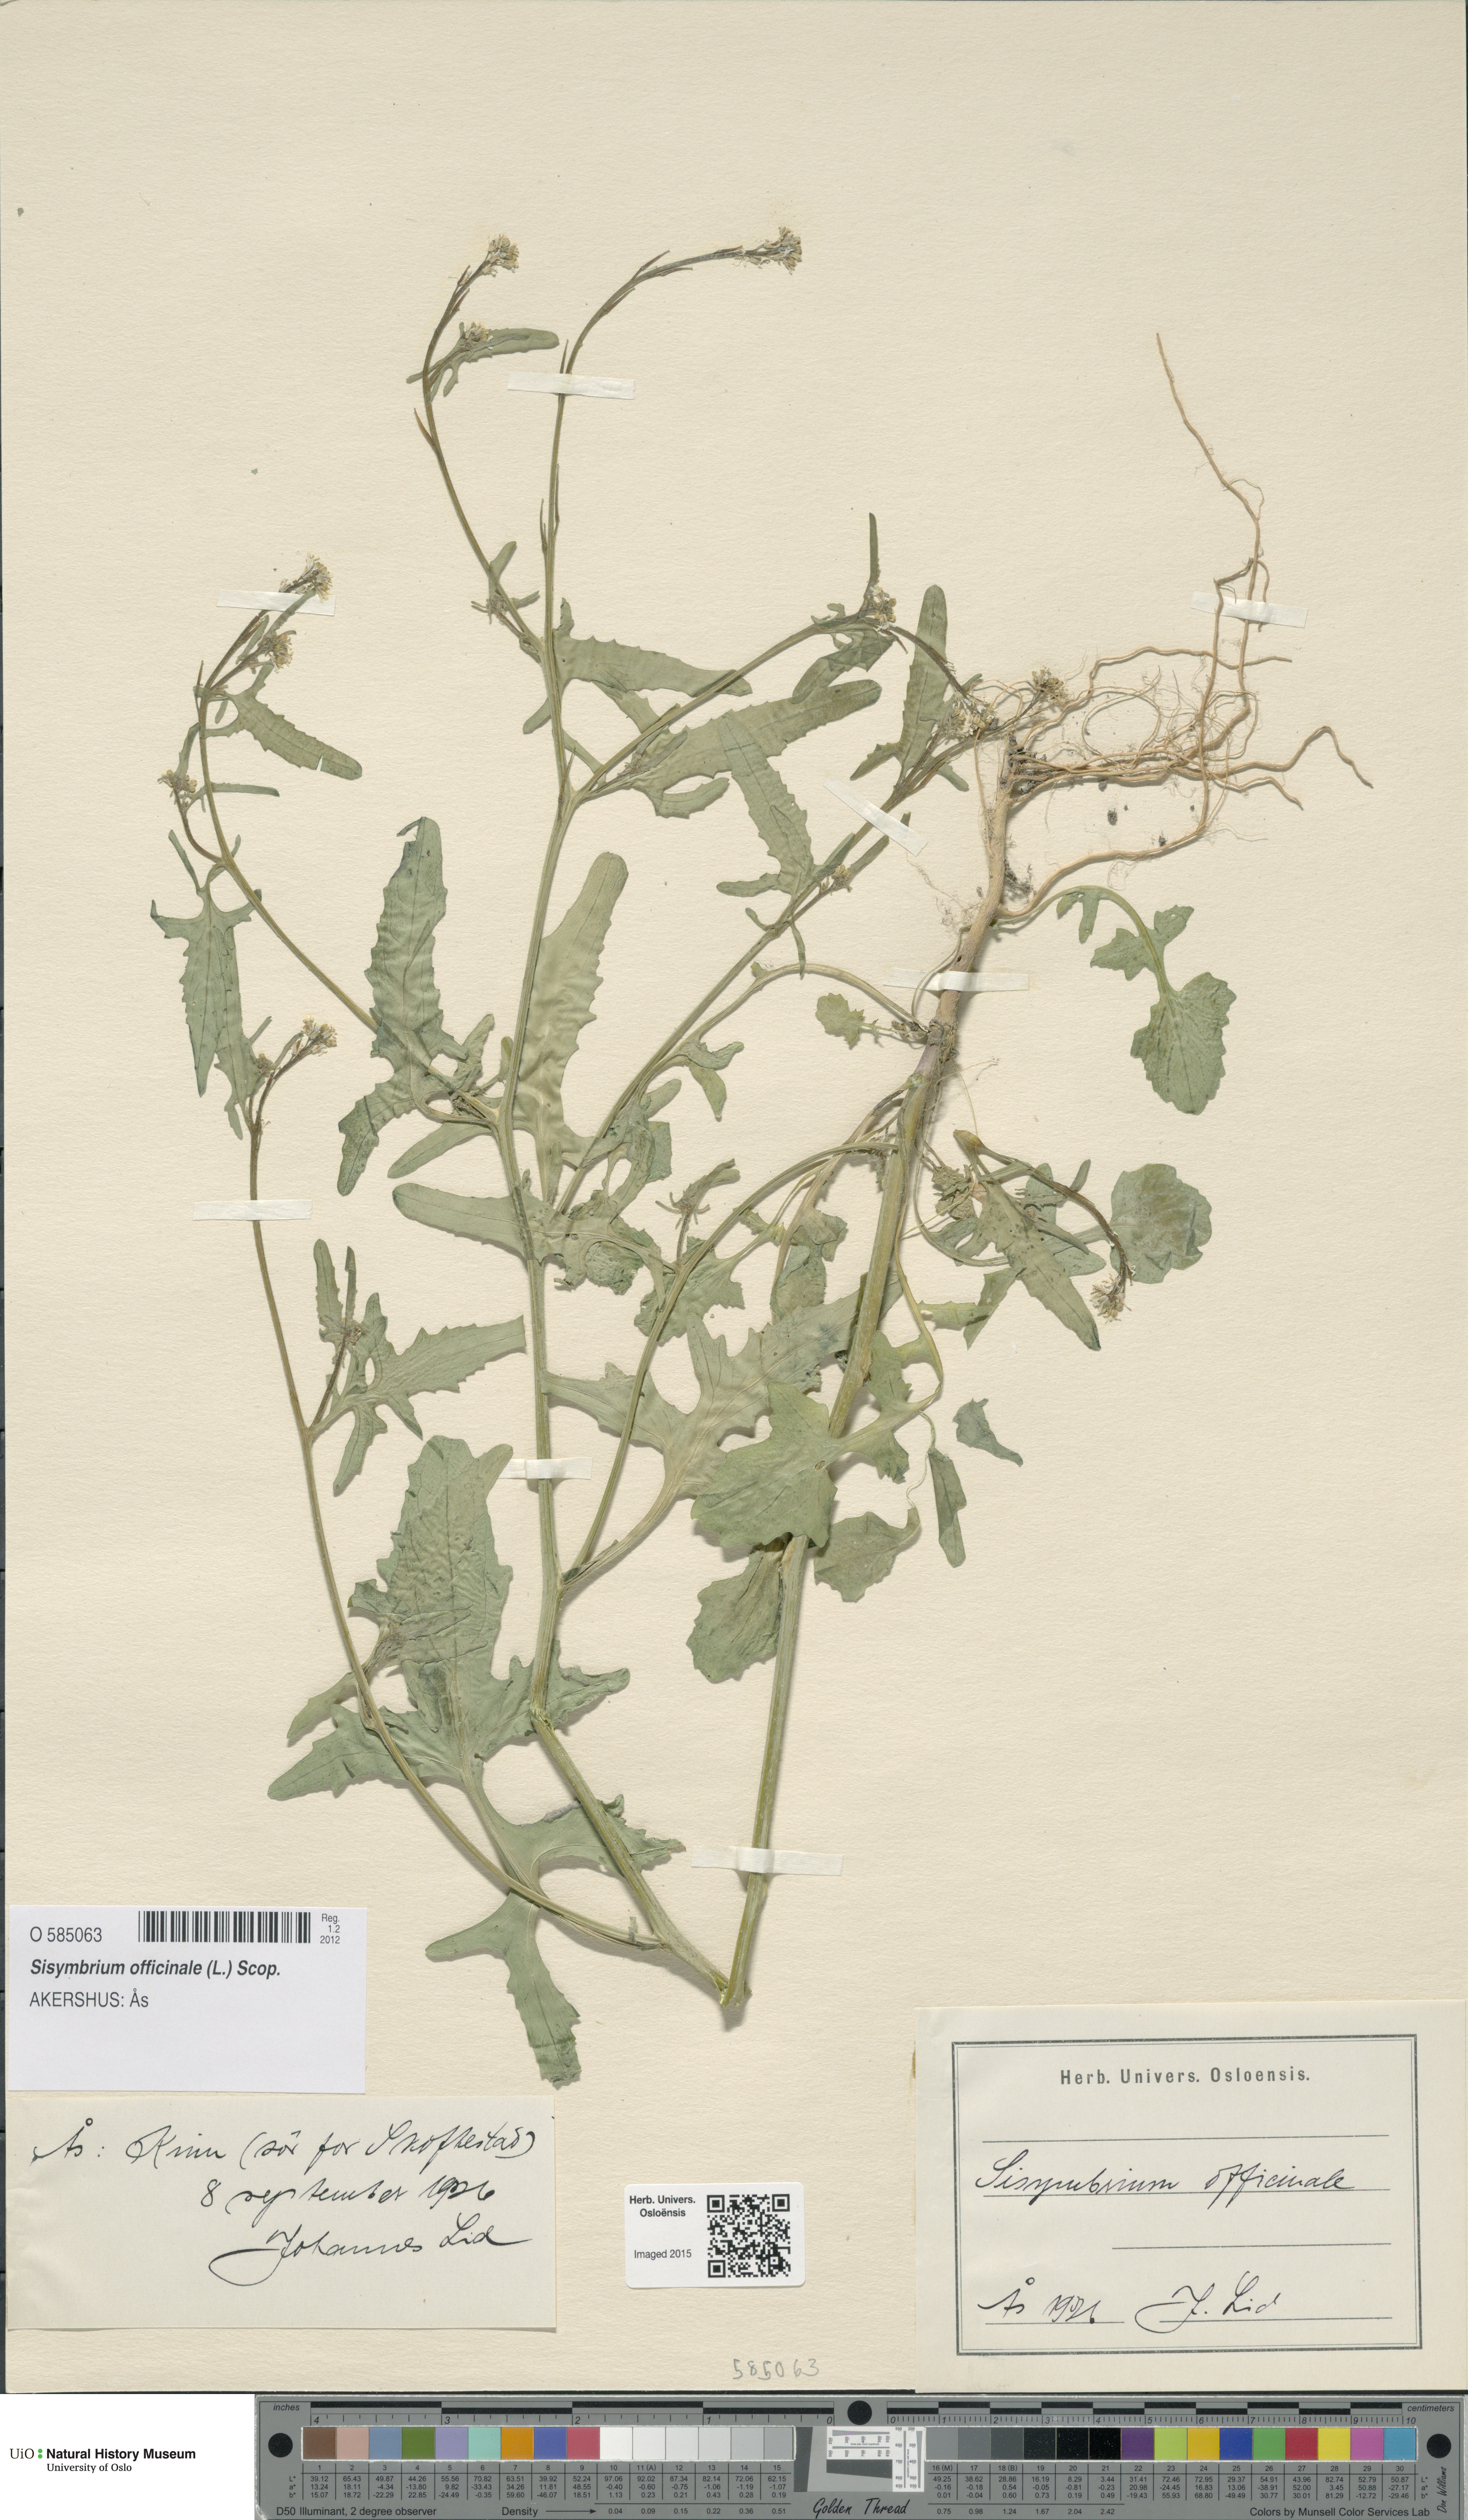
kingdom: Plantae
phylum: Tracheophyta
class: Magnoliopsida
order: Brassicales
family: Brassicaceae
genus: Sisymbrium
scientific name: Sisymbrium officinale
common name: Hedge mustard
